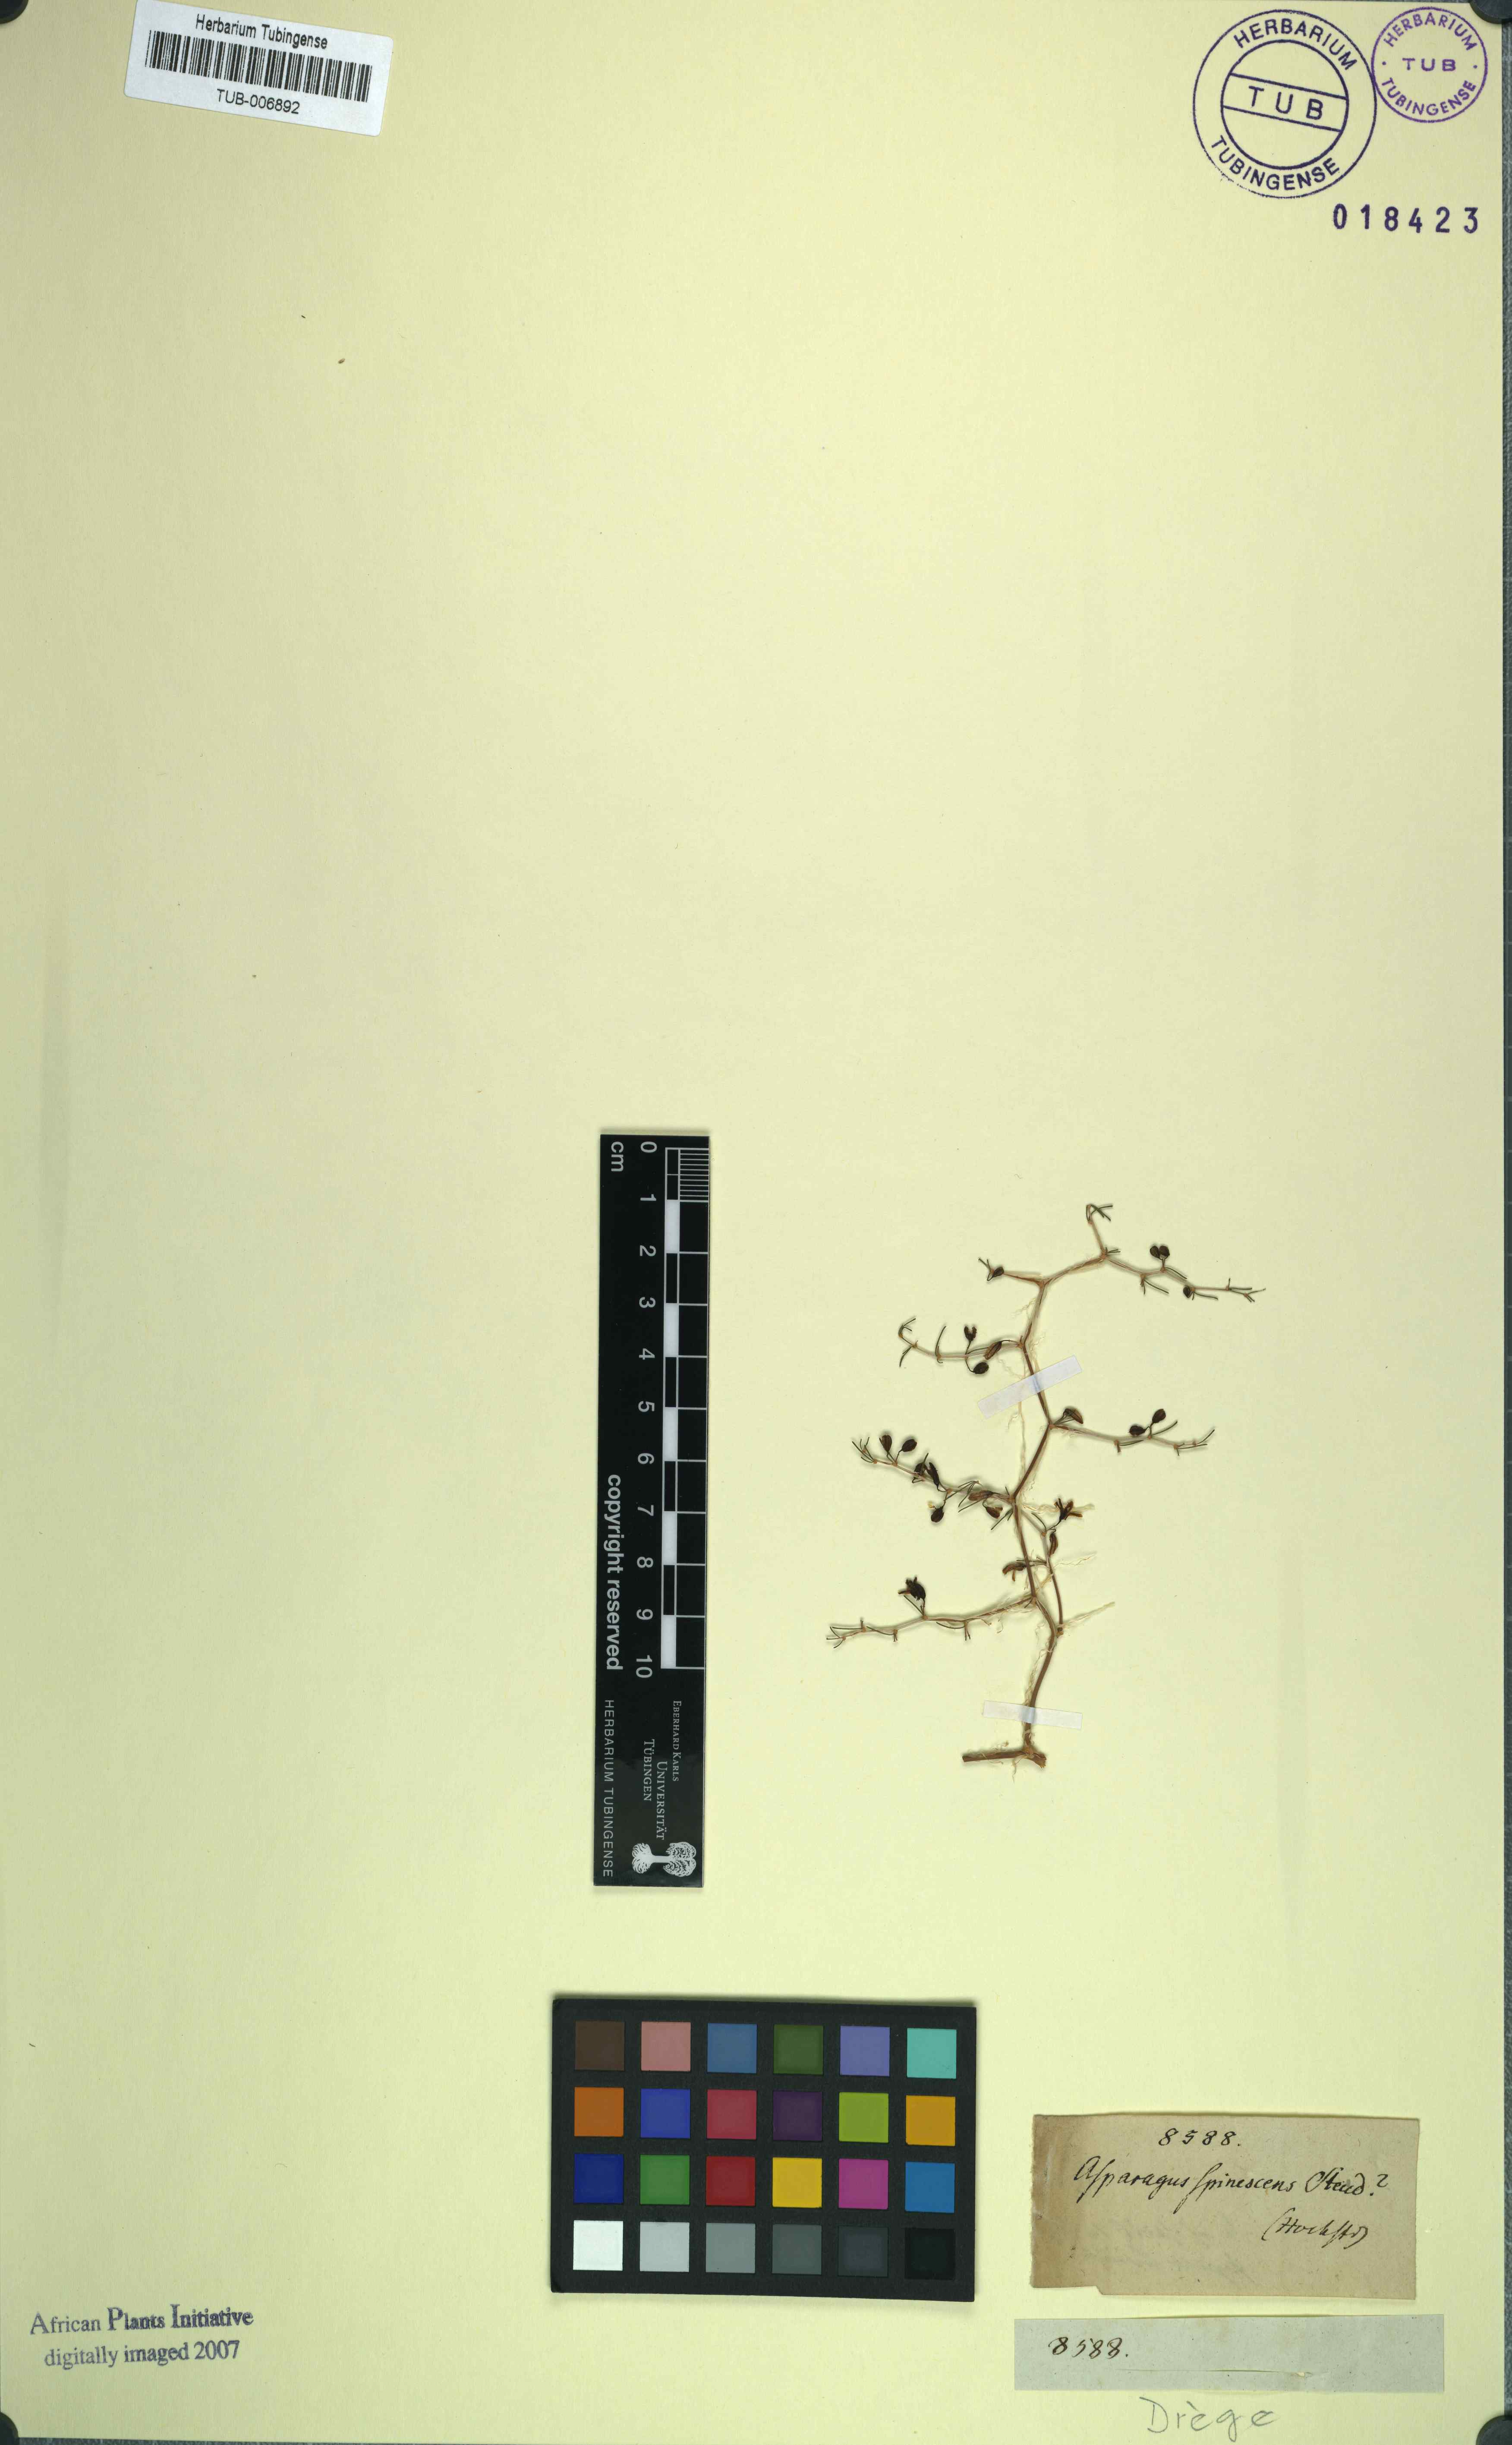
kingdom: Plantae
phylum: Tracheophyta
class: Liliopsida
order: Asparagales
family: Asparagaceae
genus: Asparagus
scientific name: Asparagus spinescens
